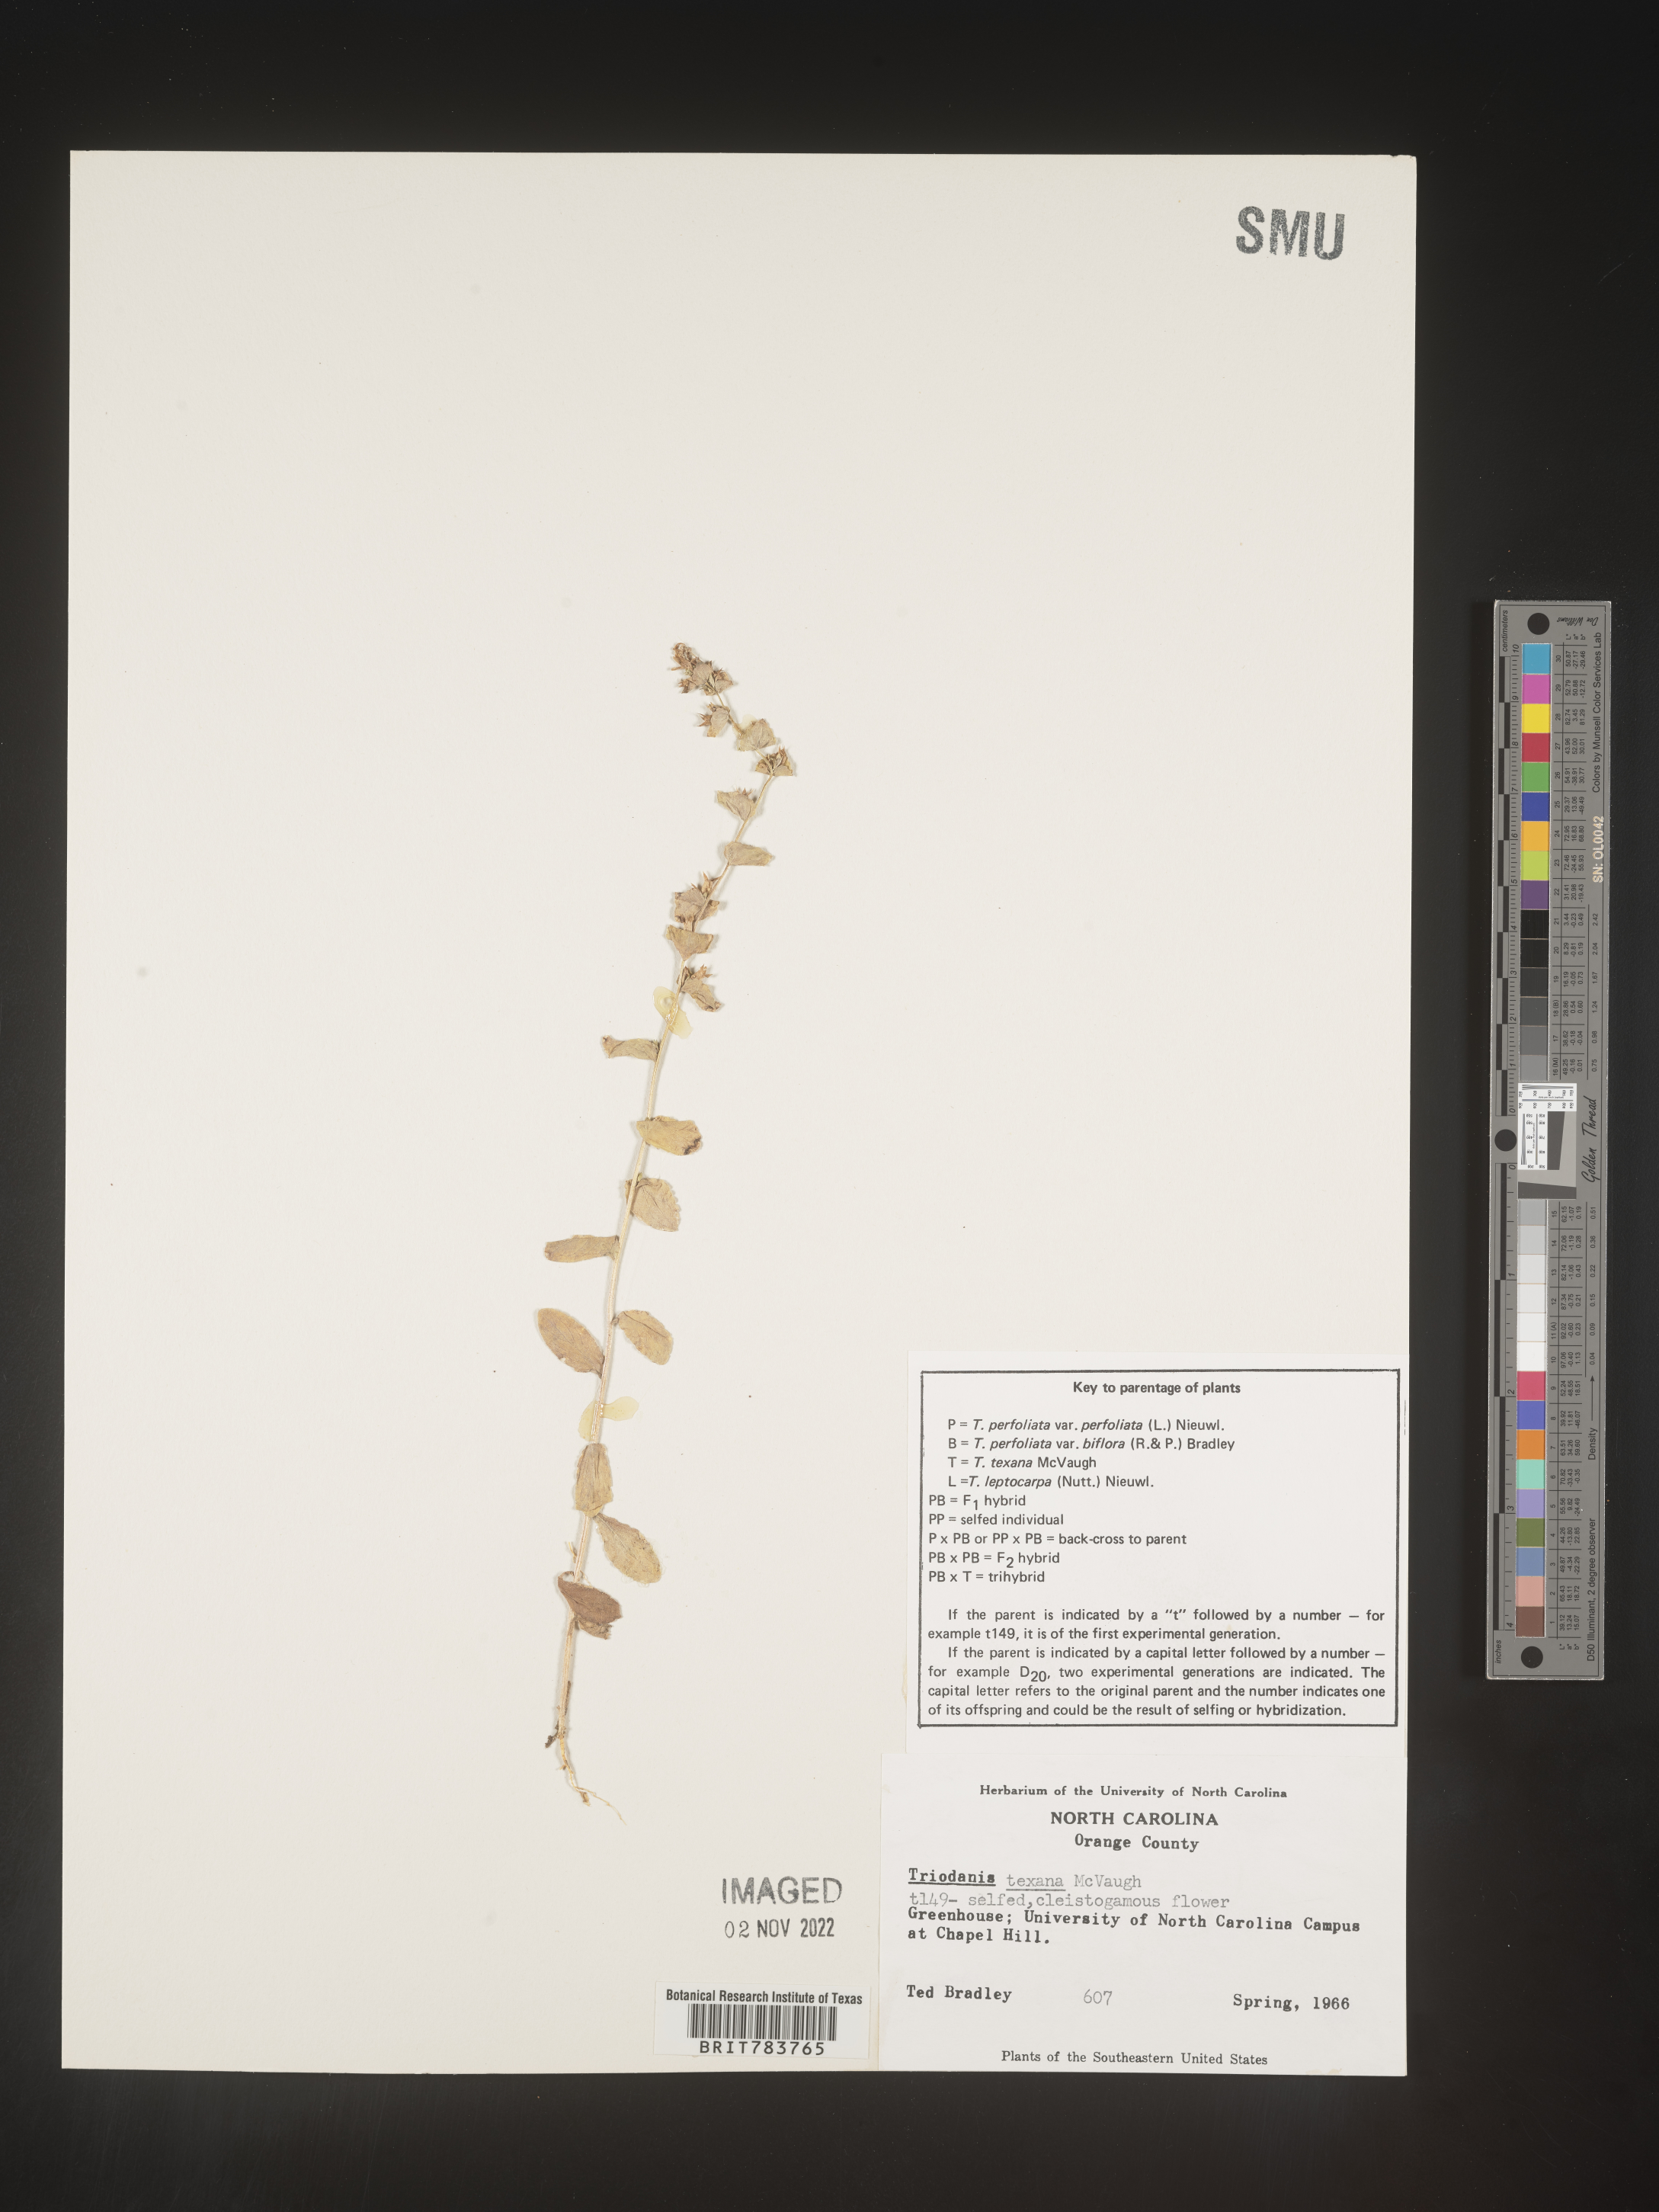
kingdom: Plantae
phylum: Tracheophyta
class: Magnoliopsida
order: Asterales
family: Campanulaceae
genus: Triodanis
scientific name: Triodanis
